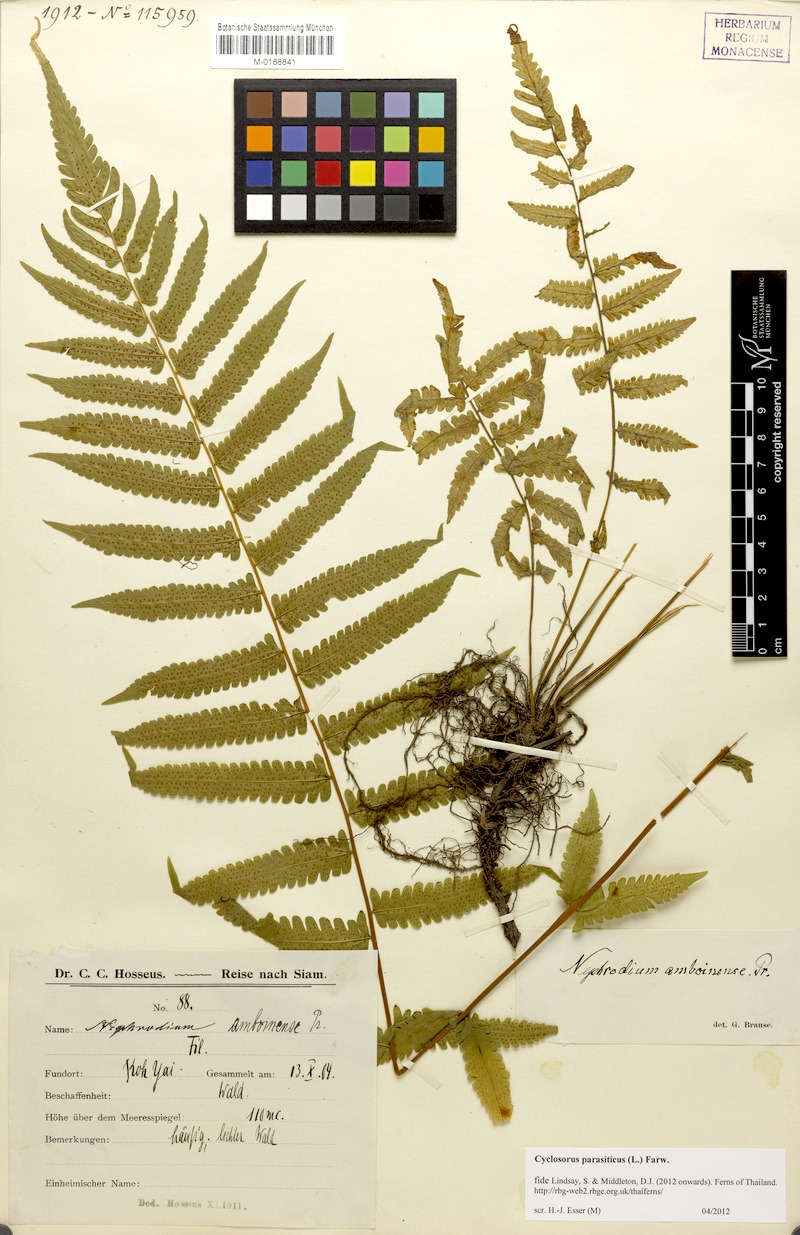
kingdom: Plantae
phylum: Tracheophyta
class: Polypodiopsida
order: Polypodiales
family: Thelypteridaceae
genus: Christella
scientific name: Christella parasitica
